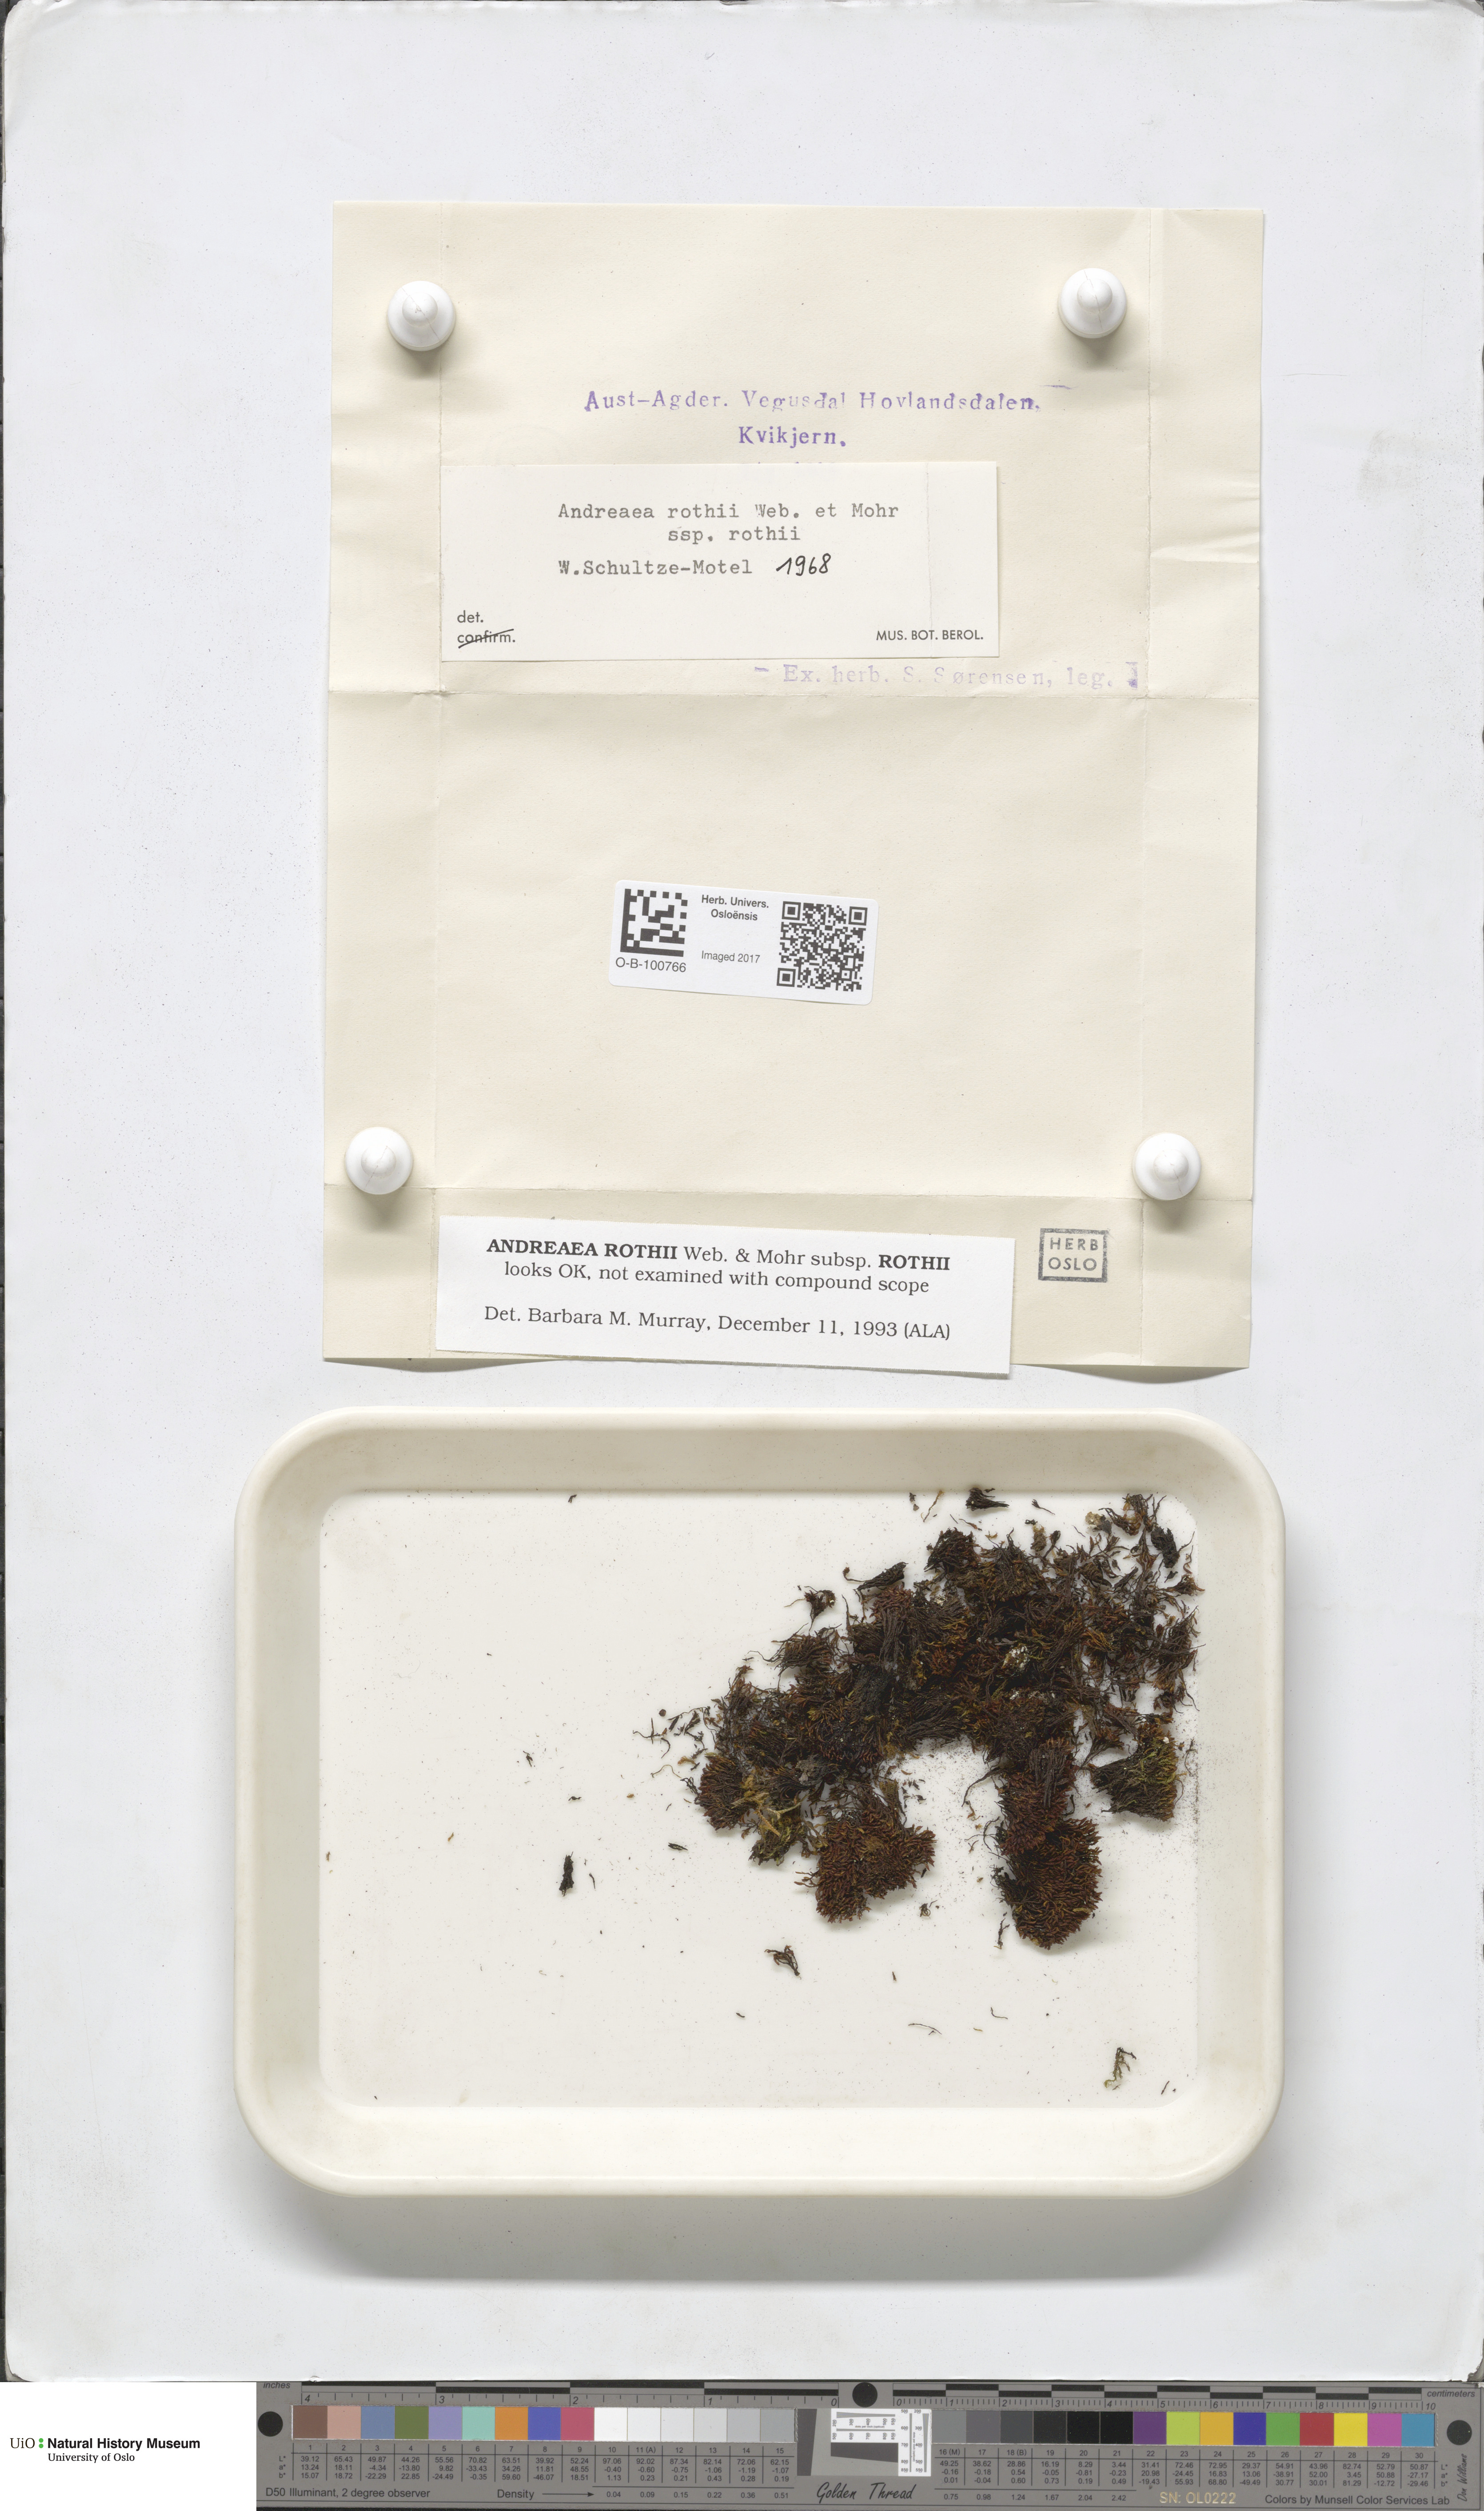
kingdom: Plantae
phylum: Bryophyta
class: Andreaeopsida
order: Andreaeales
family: Andreaeaceae
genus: Andreaea
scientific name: Andreaea rothii
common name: Dusky rock moss
